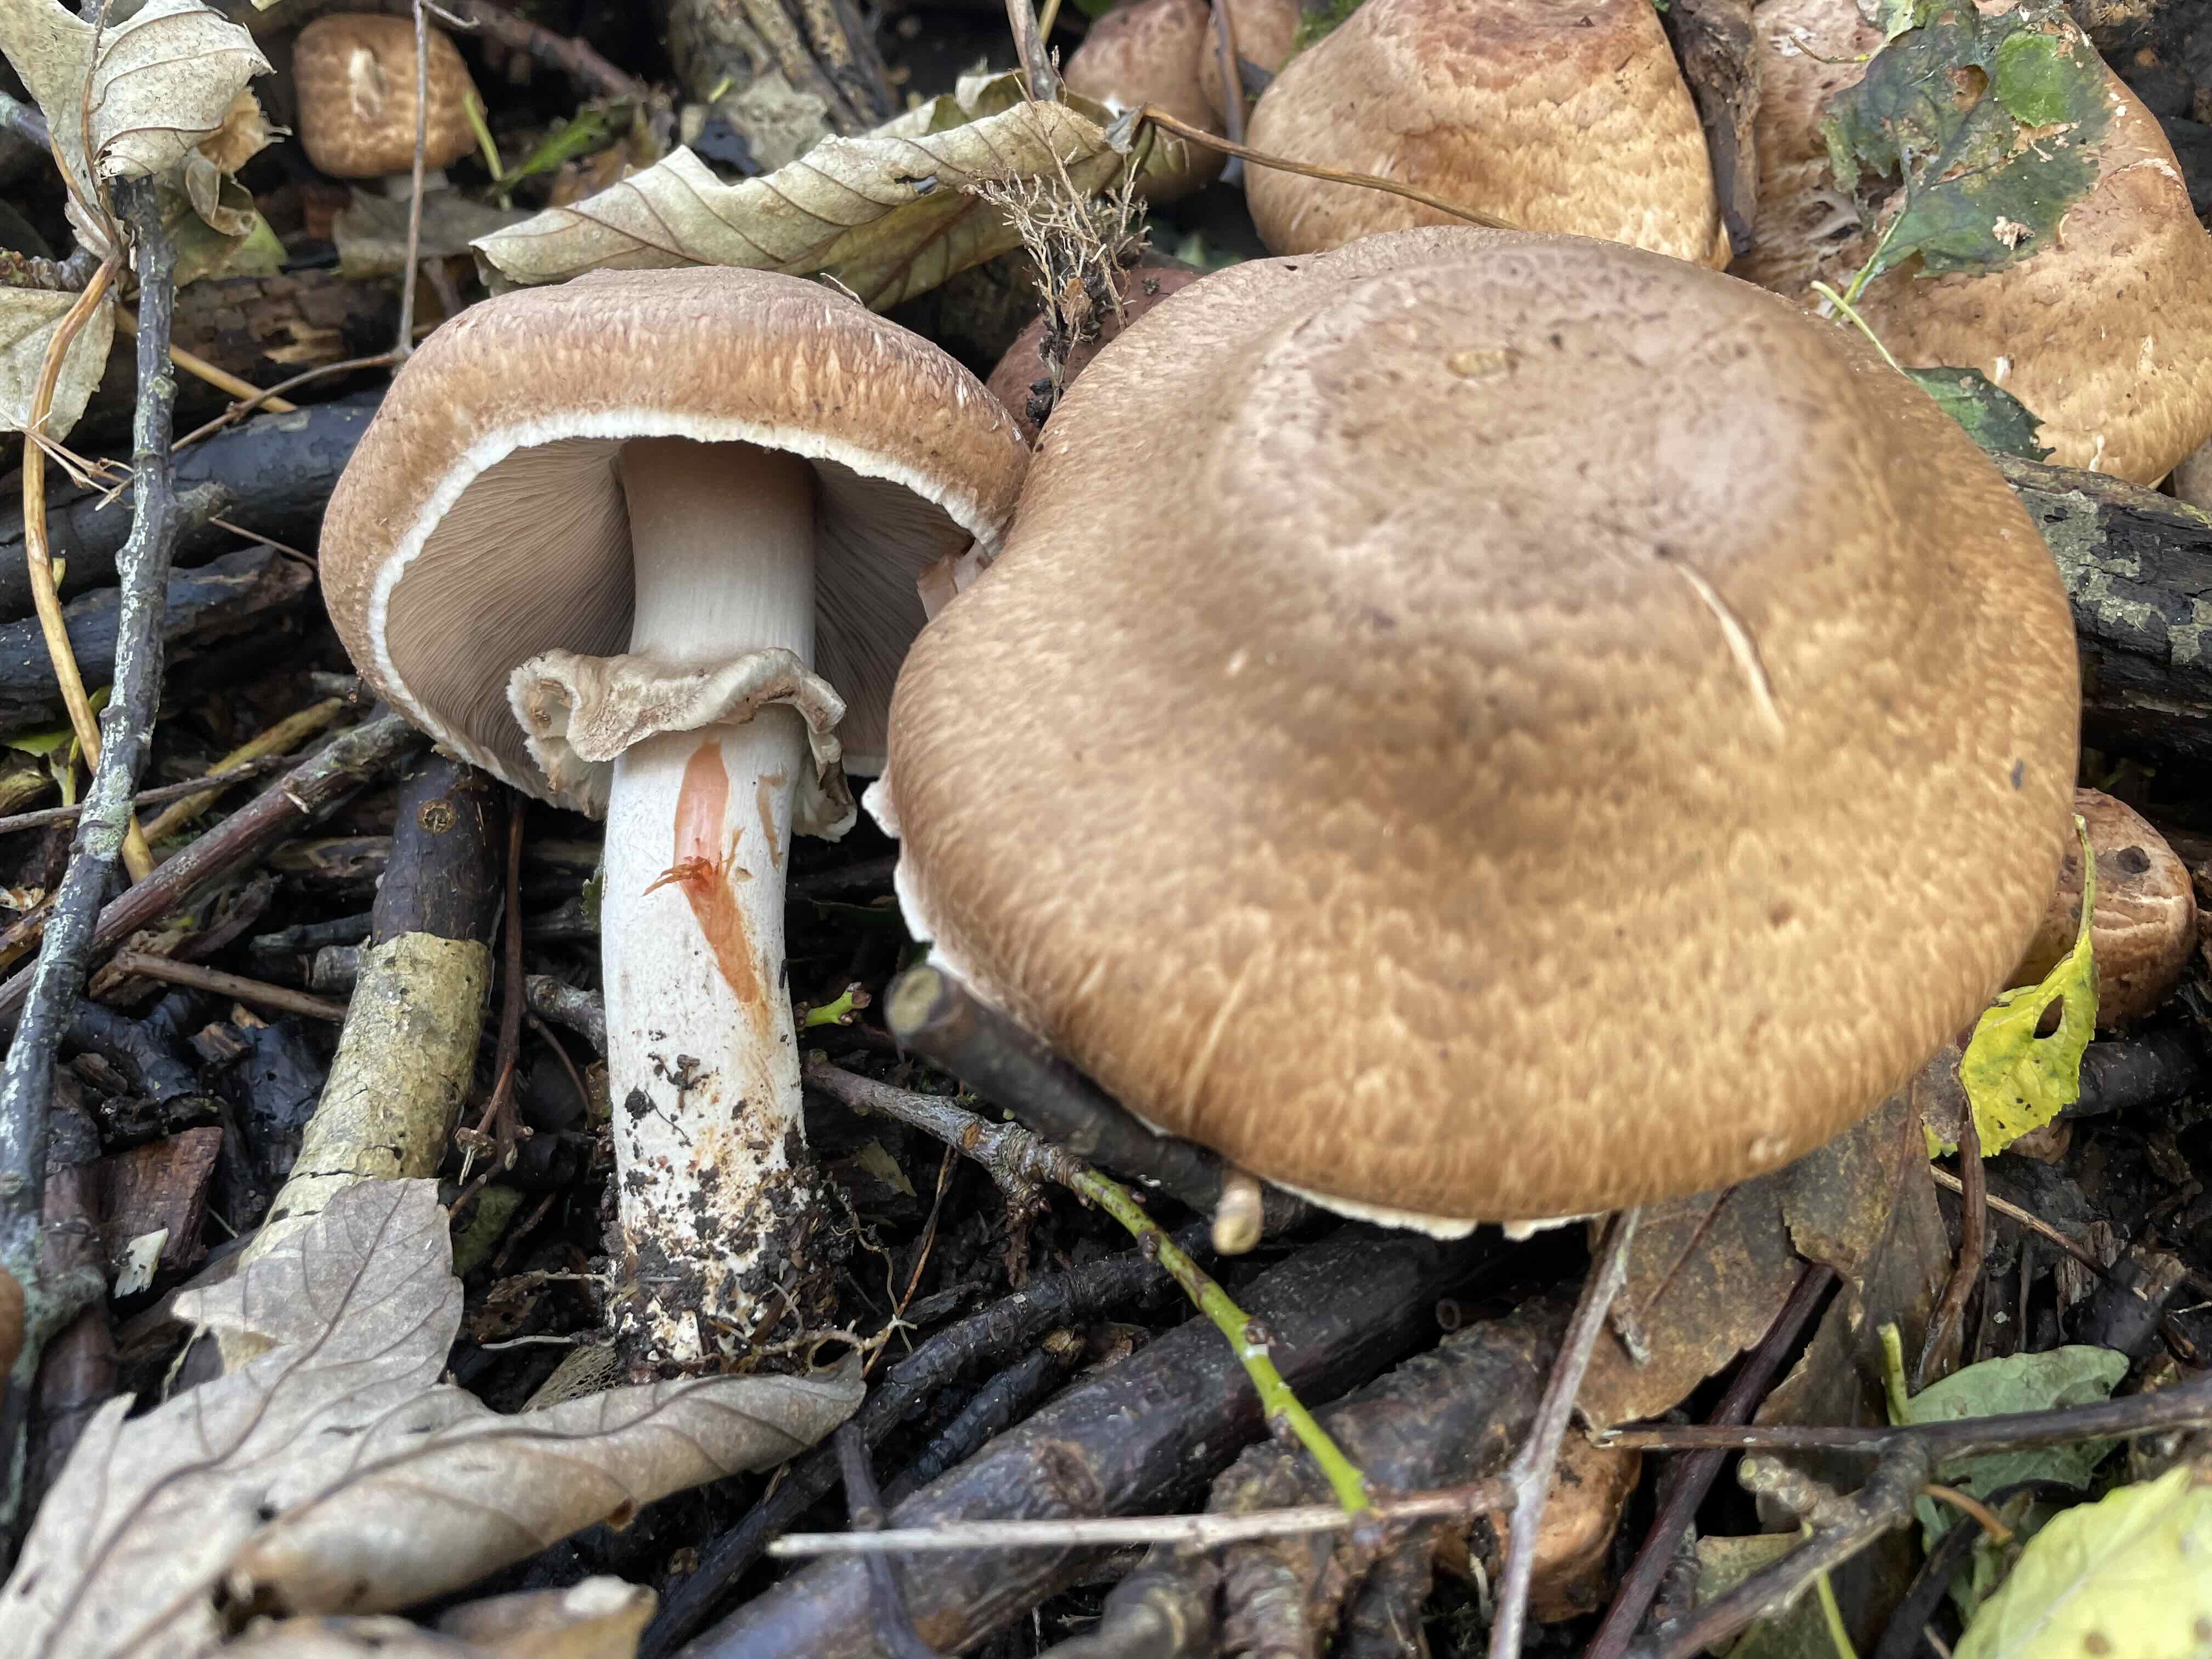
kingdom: Fungi
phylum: Basidiomycota
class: Agaricomycetes
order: Agaricales
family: Agaricaceae
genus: Agaricus
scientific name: Agaricus
